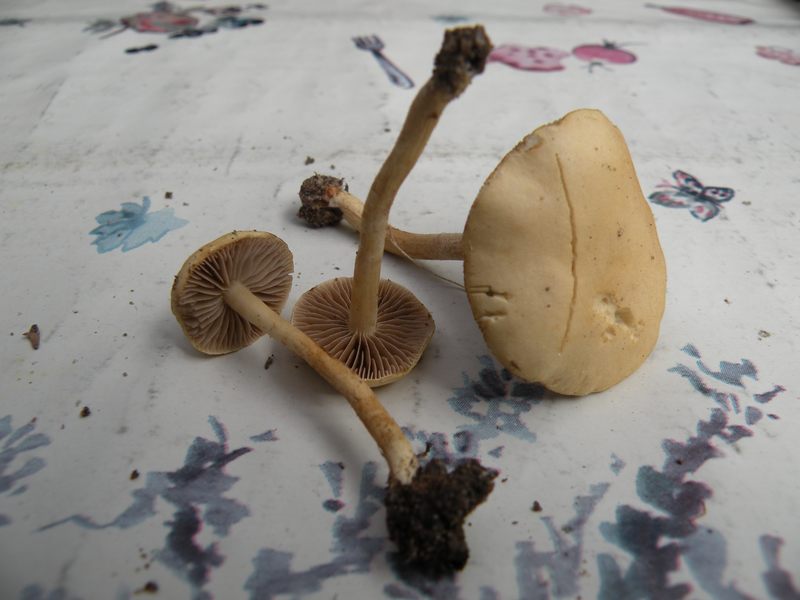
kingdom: Fungi
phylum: Basidiomycota
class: Agaricomycetes
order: Agaricales
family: Strophariaceae
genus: Agrocybe
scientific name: Agrocybe pediades
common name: almindelig agerhat
